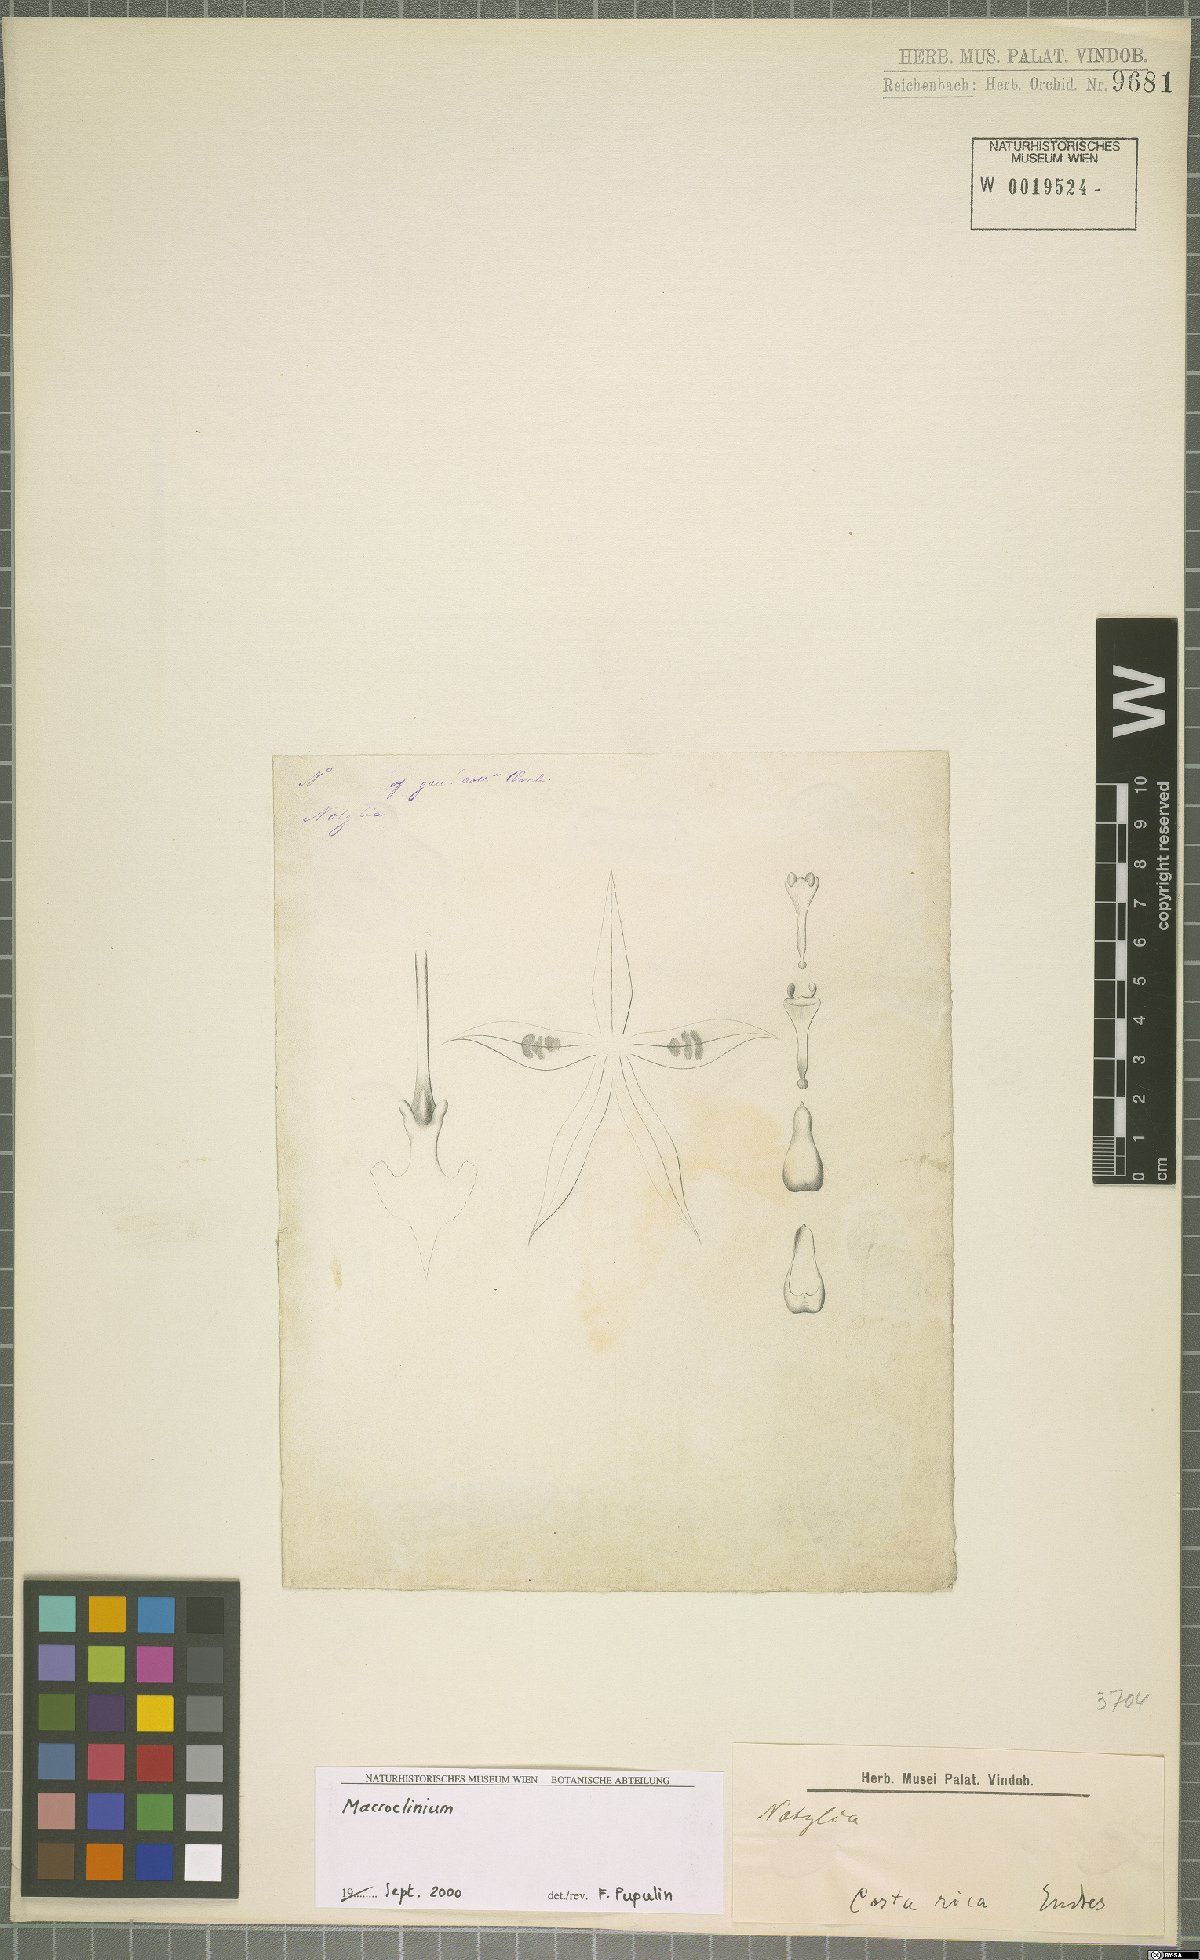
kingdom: Plantae
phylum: Tracheophyta
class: Liliopsida
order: Asparagales
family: Orchidaceae
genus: Macroclinium
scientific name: Macroclinium
